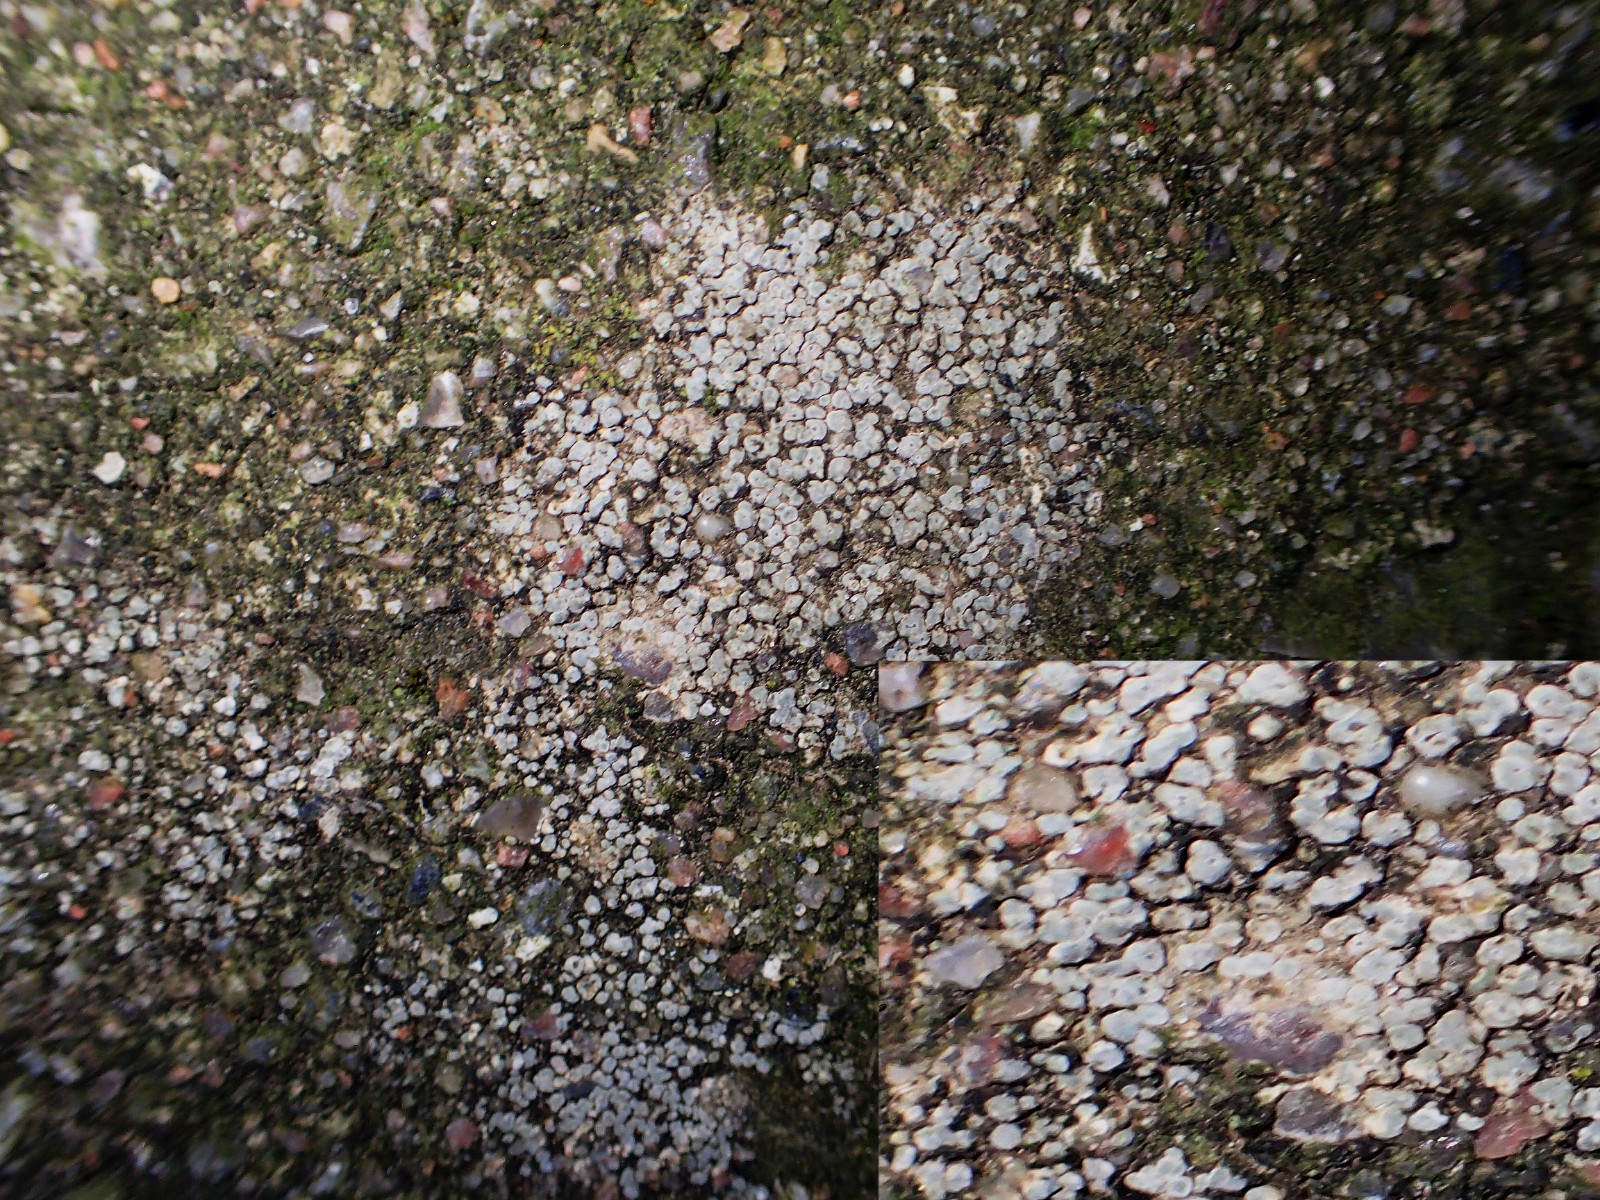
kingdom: Fungi
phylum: Ascomycota
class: Lecanoromycetes
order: Pertusariales
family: Megasporaceae
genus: Circinaria
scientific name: Circinaria contorta
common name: indviklet hulskivelav
